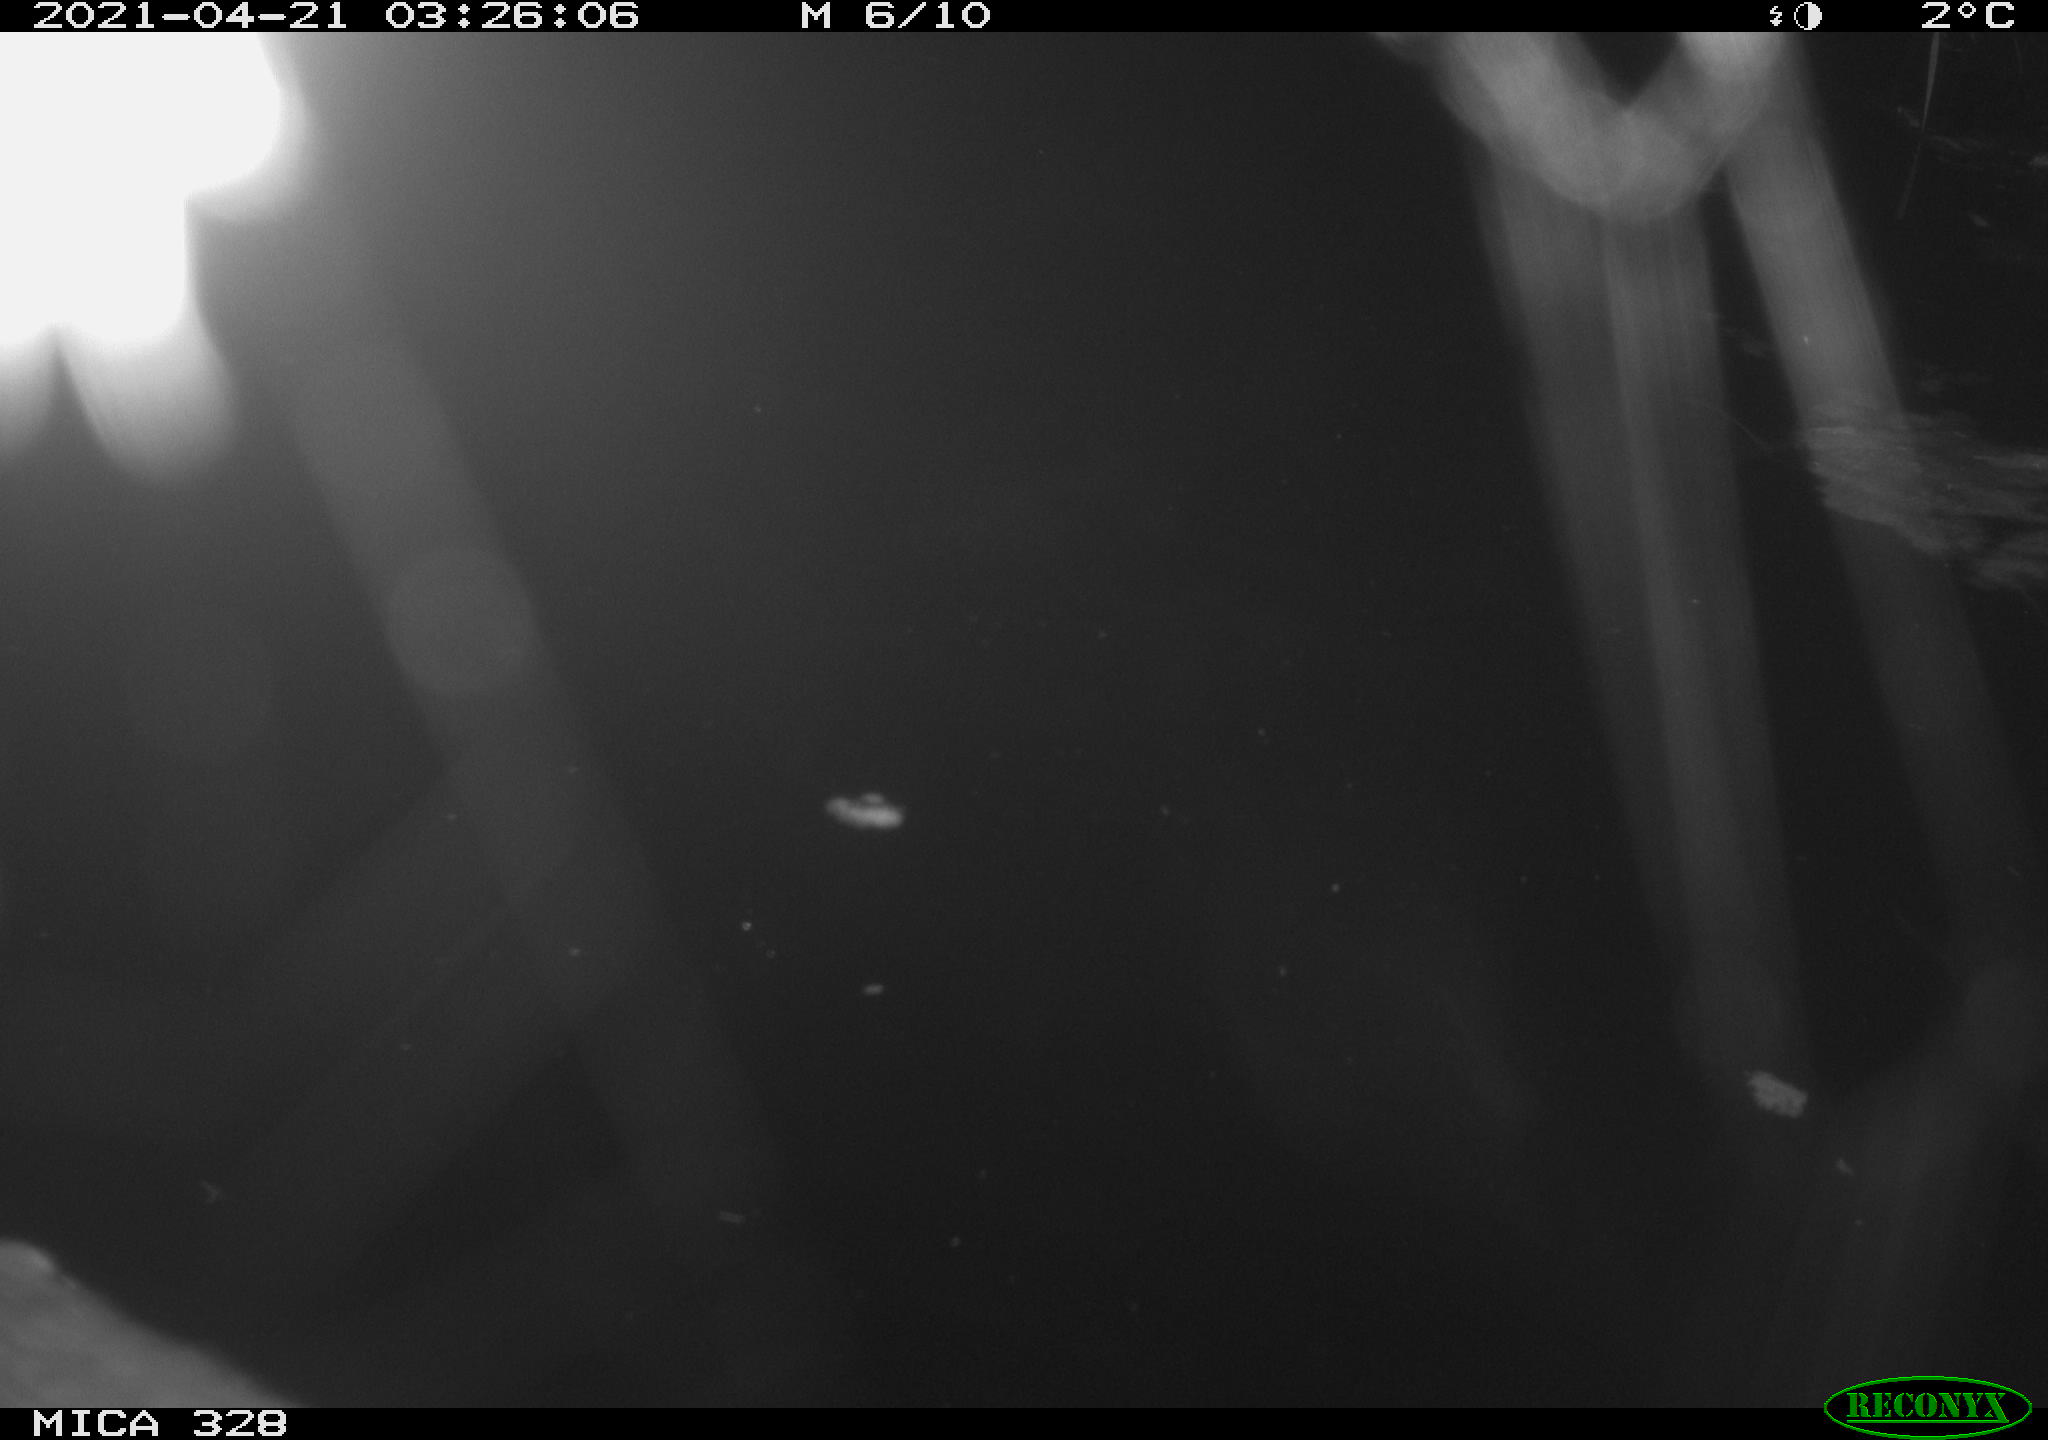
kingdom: Animalia
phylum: Chordata
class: Mammalia
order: Rodentia
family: Cricetidae
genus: Ondatra
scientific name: Ondatra zibethicus
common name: Muskrat
